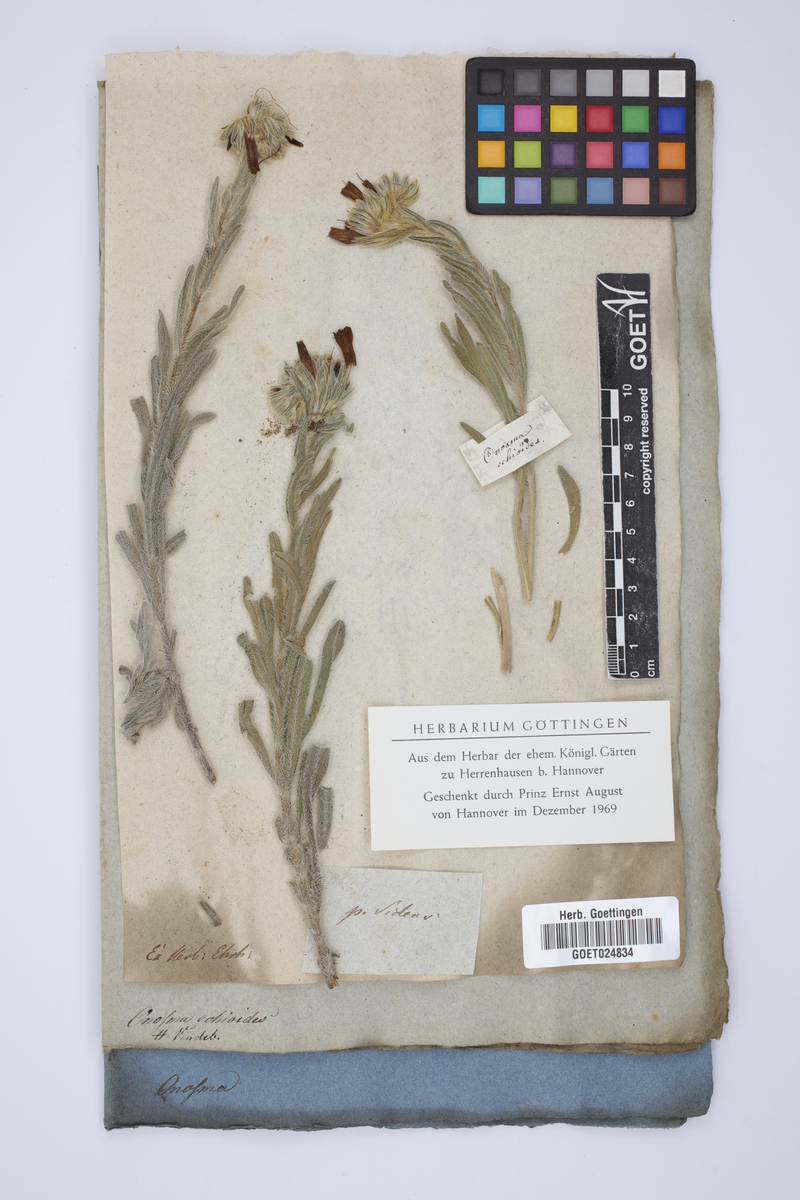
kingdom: Plantae
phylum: Tracheophyta
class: Magnoliopsida
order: Boraginales
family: Boraginaceae
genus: Onosma
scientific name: Onosma echioides
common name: Goldendrop
